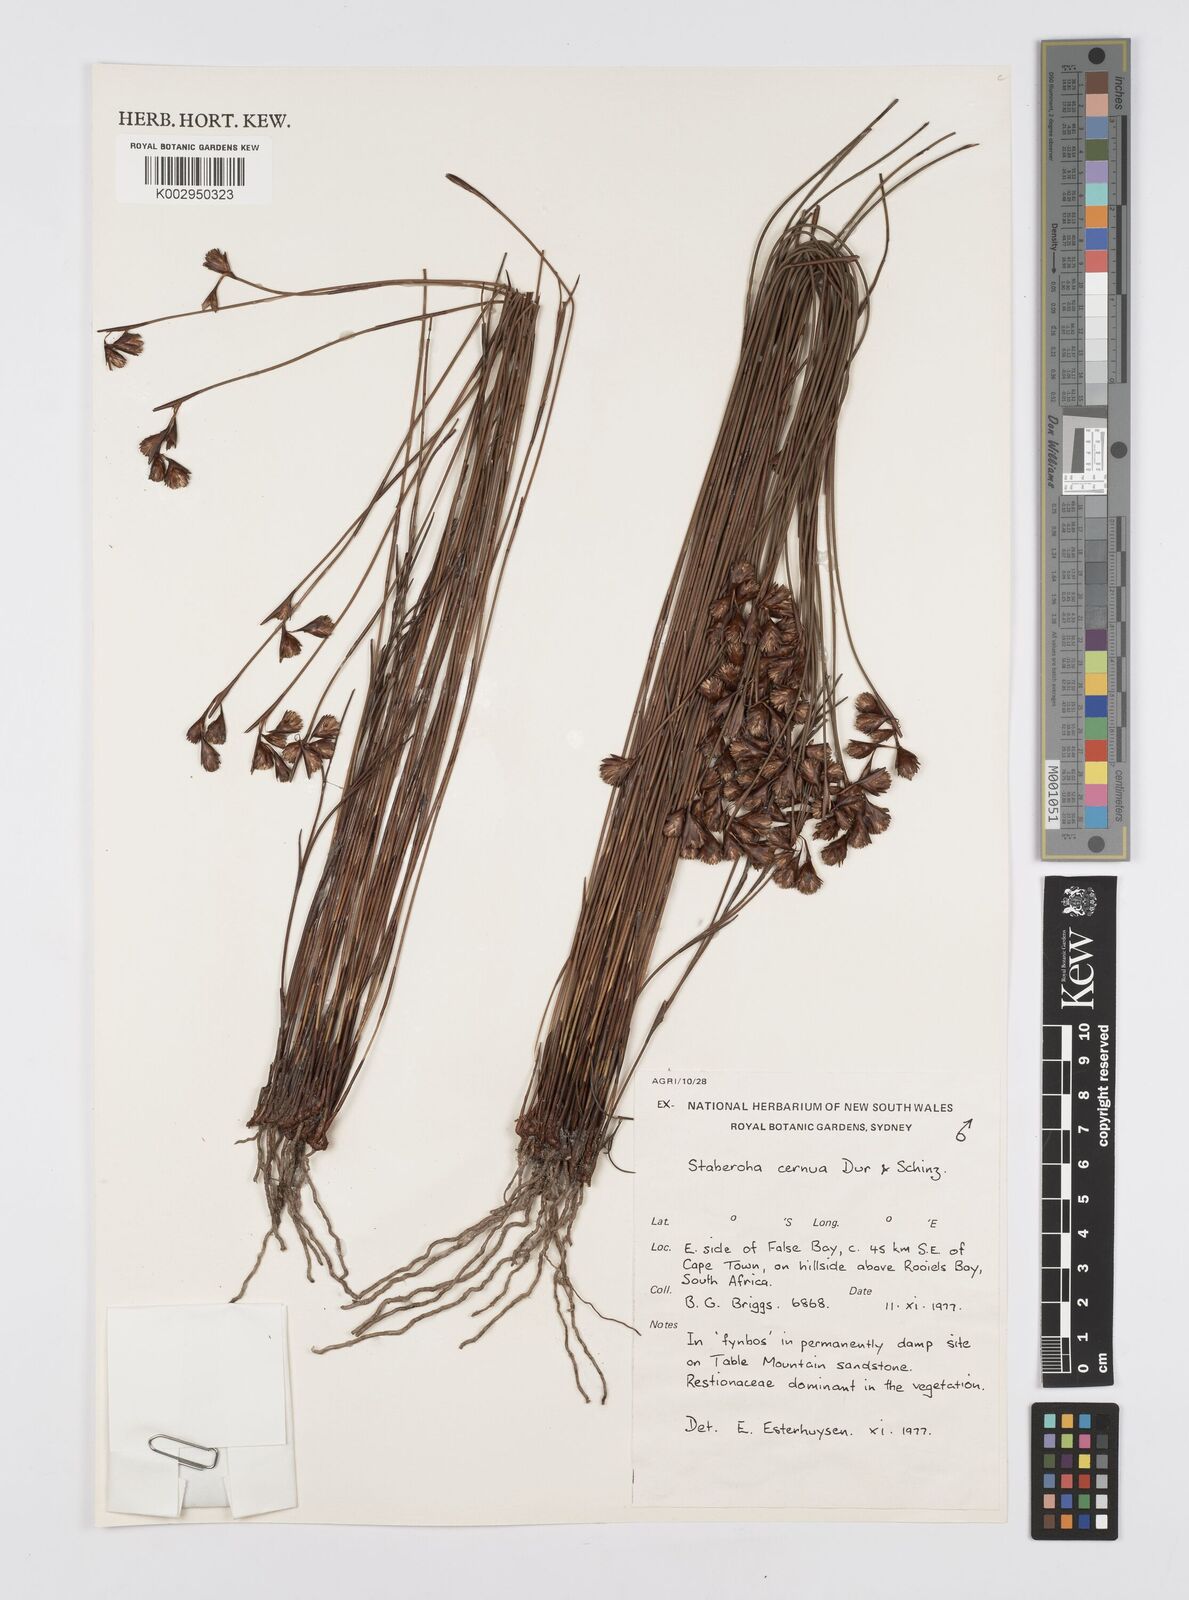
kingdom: Plantae
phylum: Tracheophyta
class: Liliopsida
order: Poales
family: Restionaceae
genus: Staberoha
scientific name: Staberoha cernua
